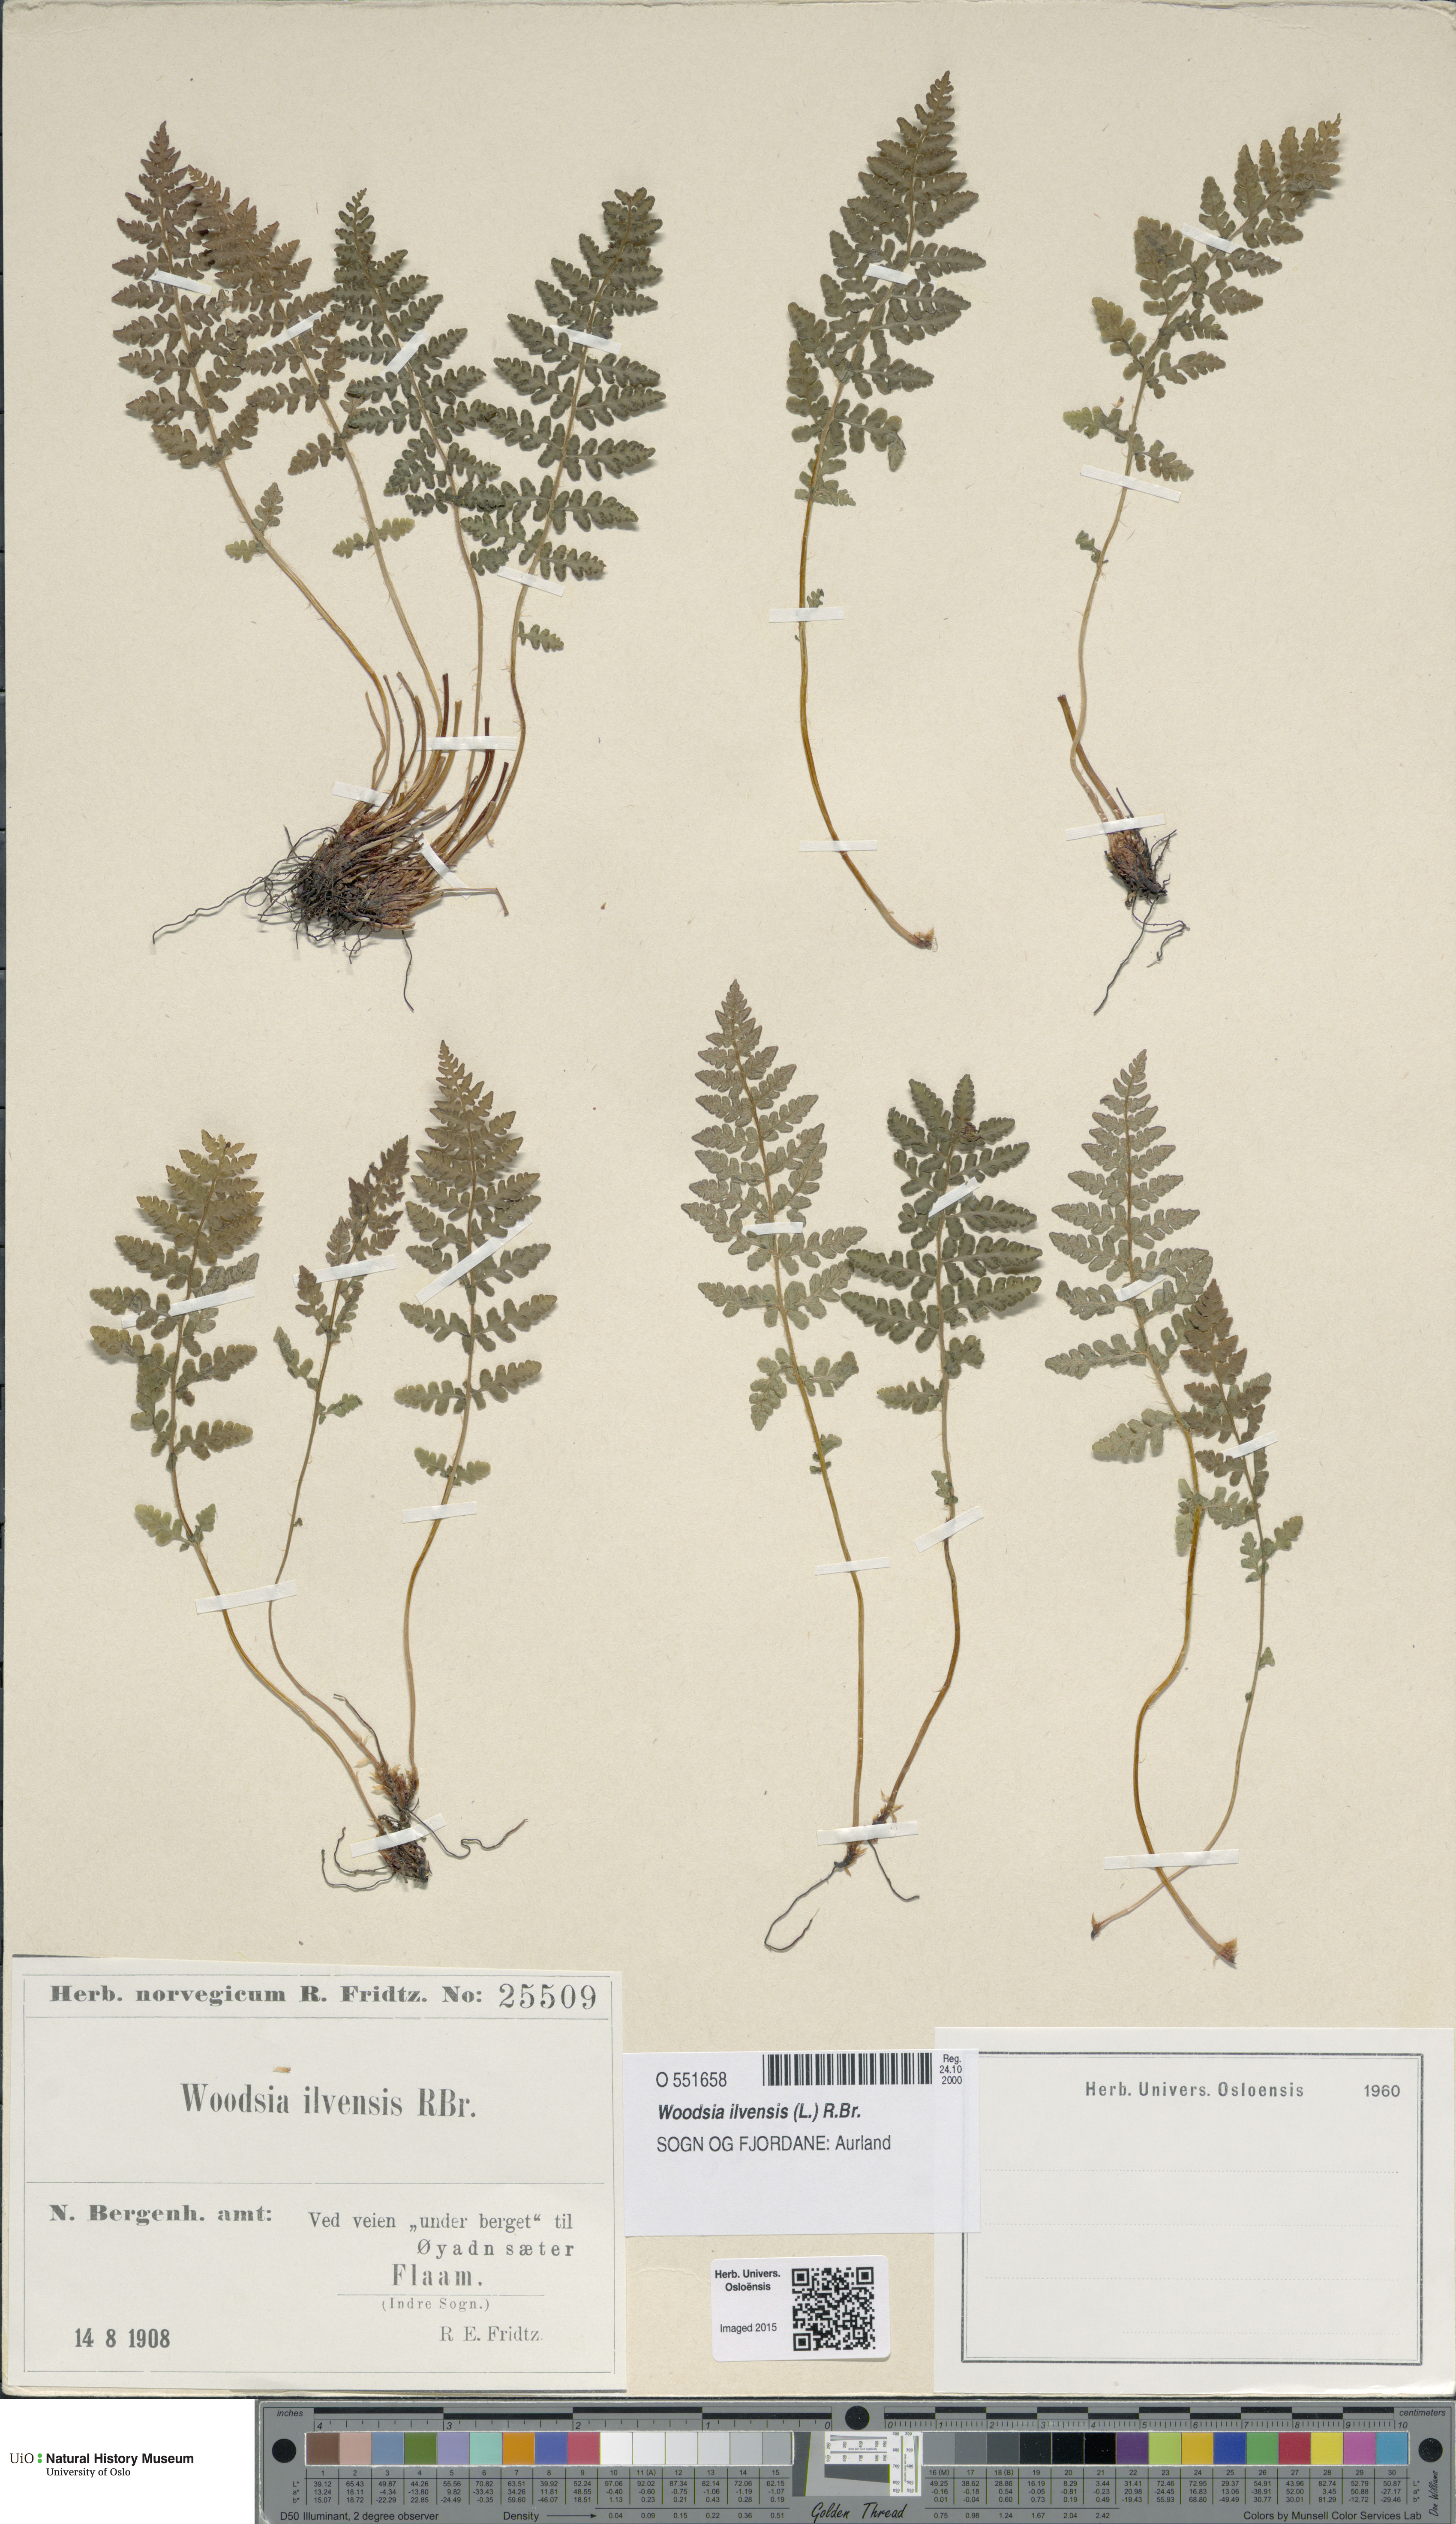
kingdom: Plantae
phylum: Tracheophyta
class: Polypodiopsida
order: Polypodiales
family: Woodsiaceae
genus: Woodsia
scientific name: Woodsia ilvensis
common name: Fragrant woodsia
